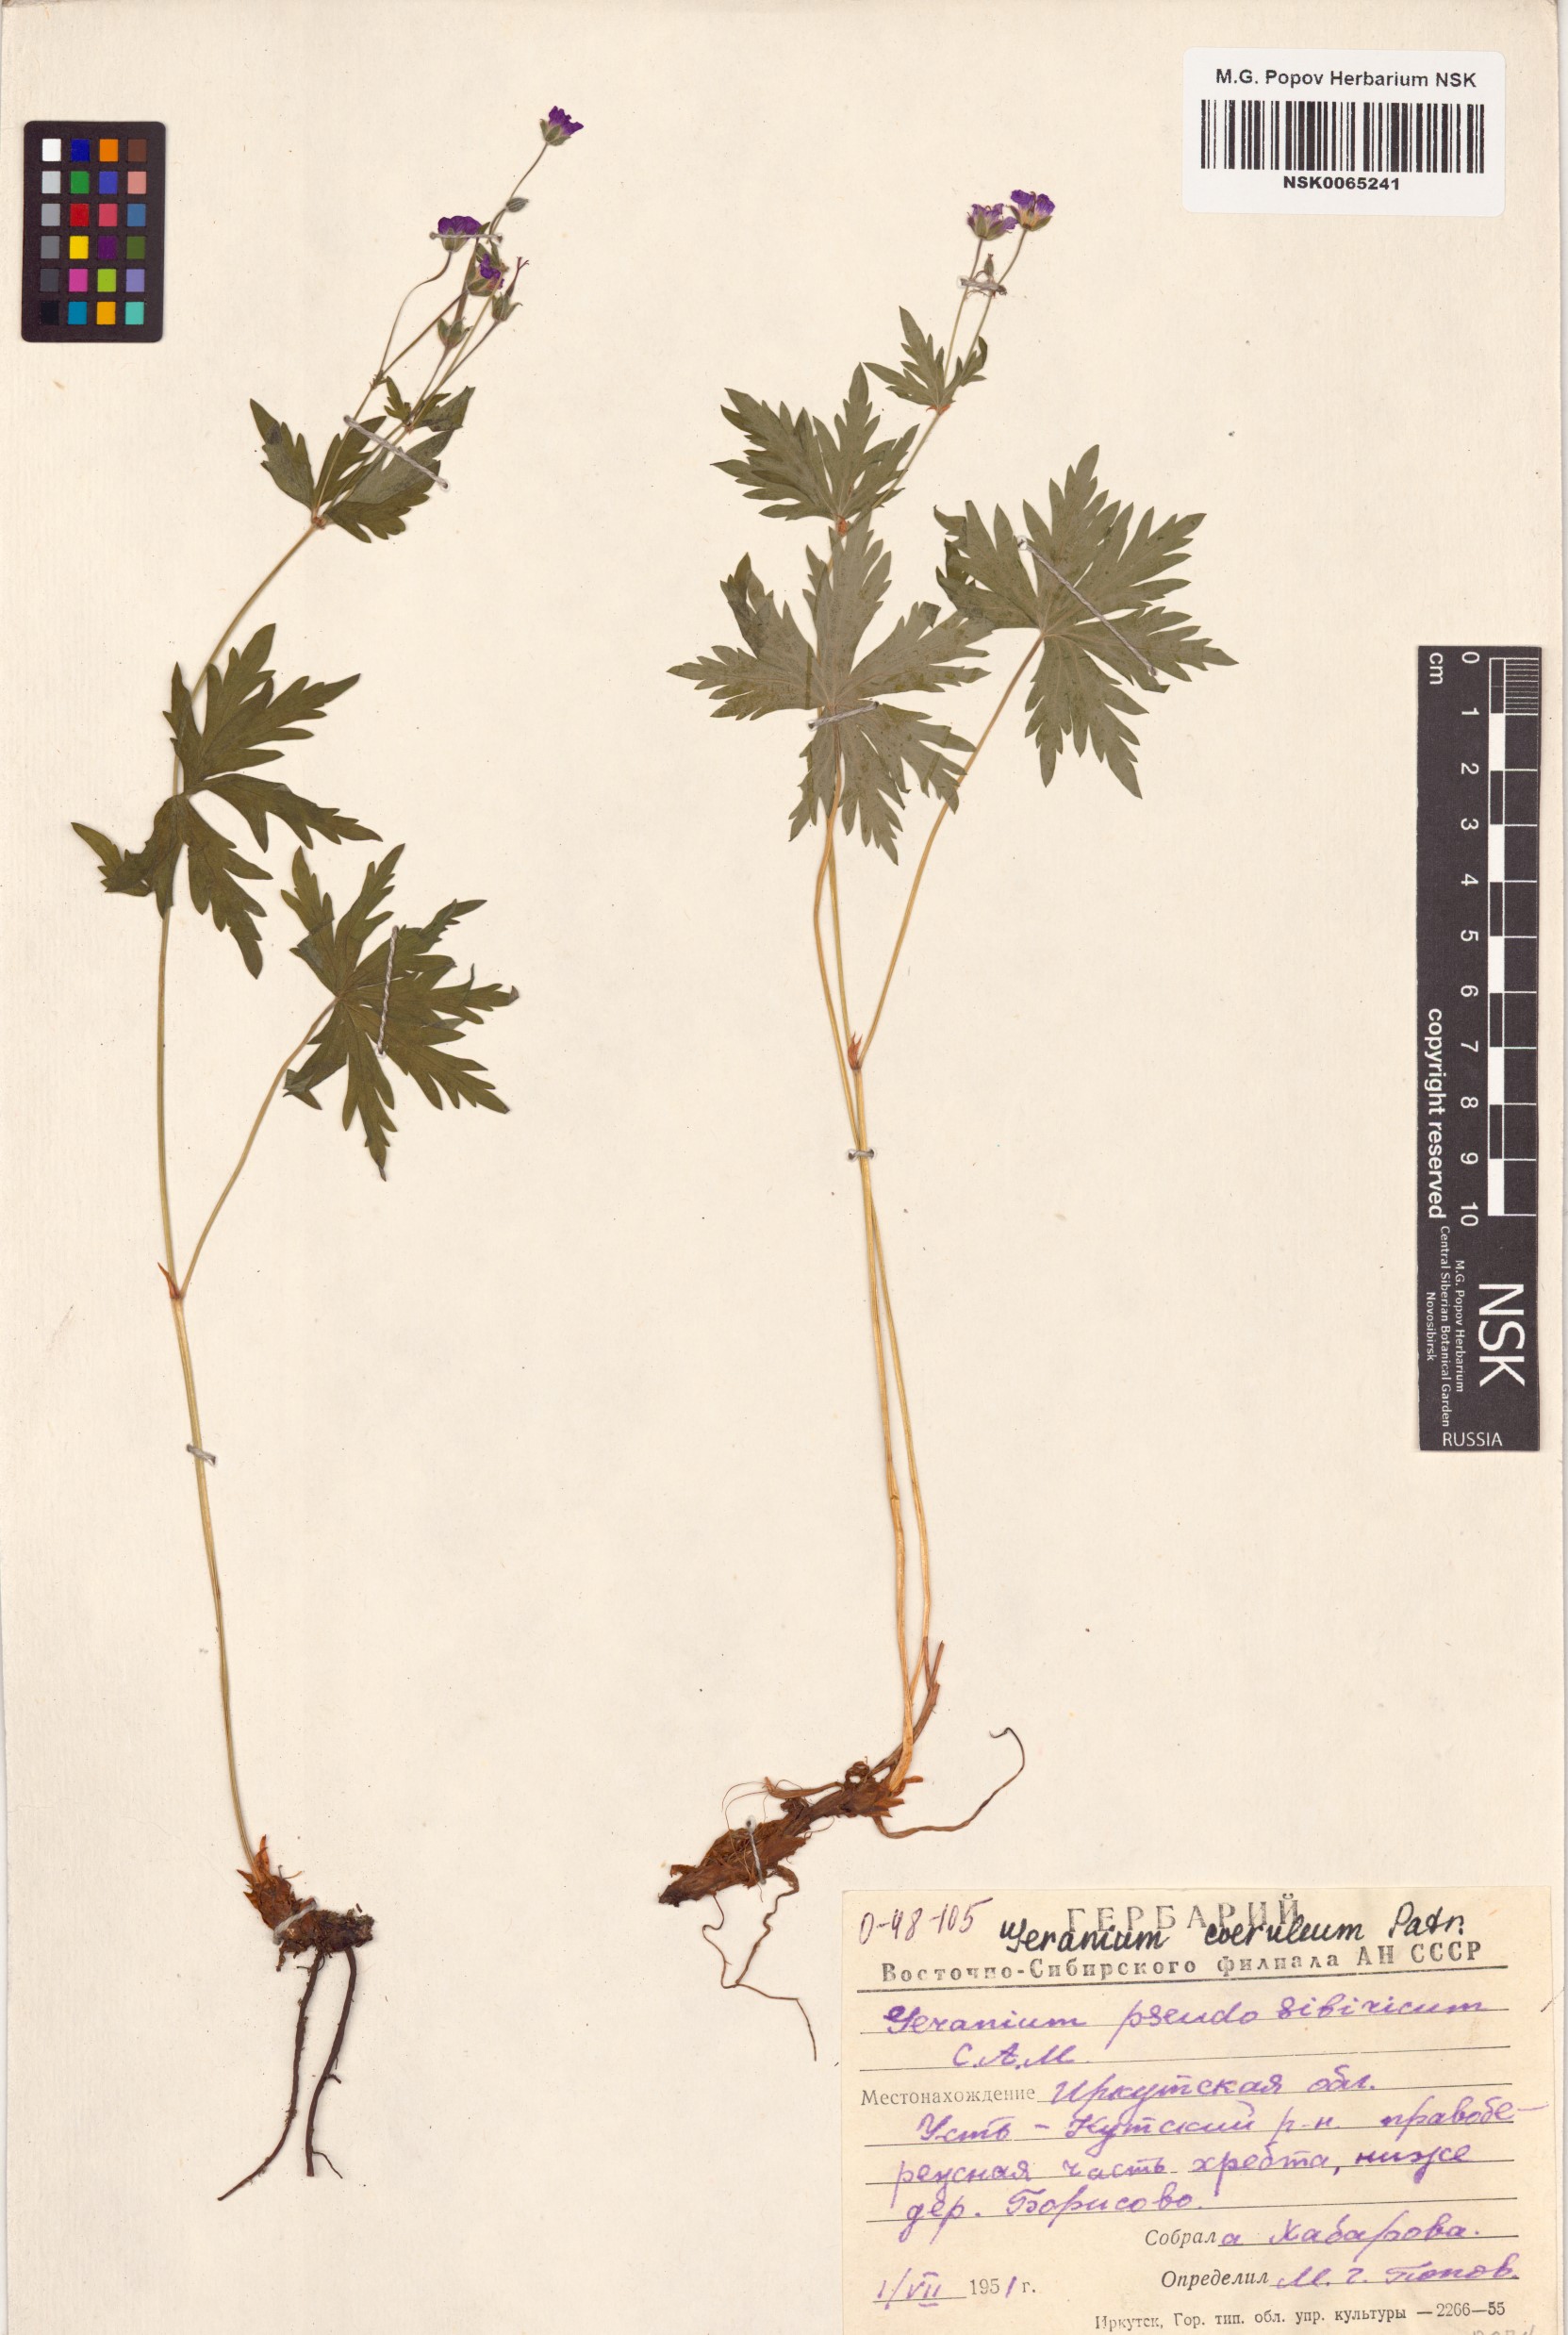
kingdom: Plantae
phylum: Tracheophyta
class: Magnoliopsida
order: Geraniales
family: Geraniaceae
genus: Geranium
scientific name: Geranium pseudosibiricum
